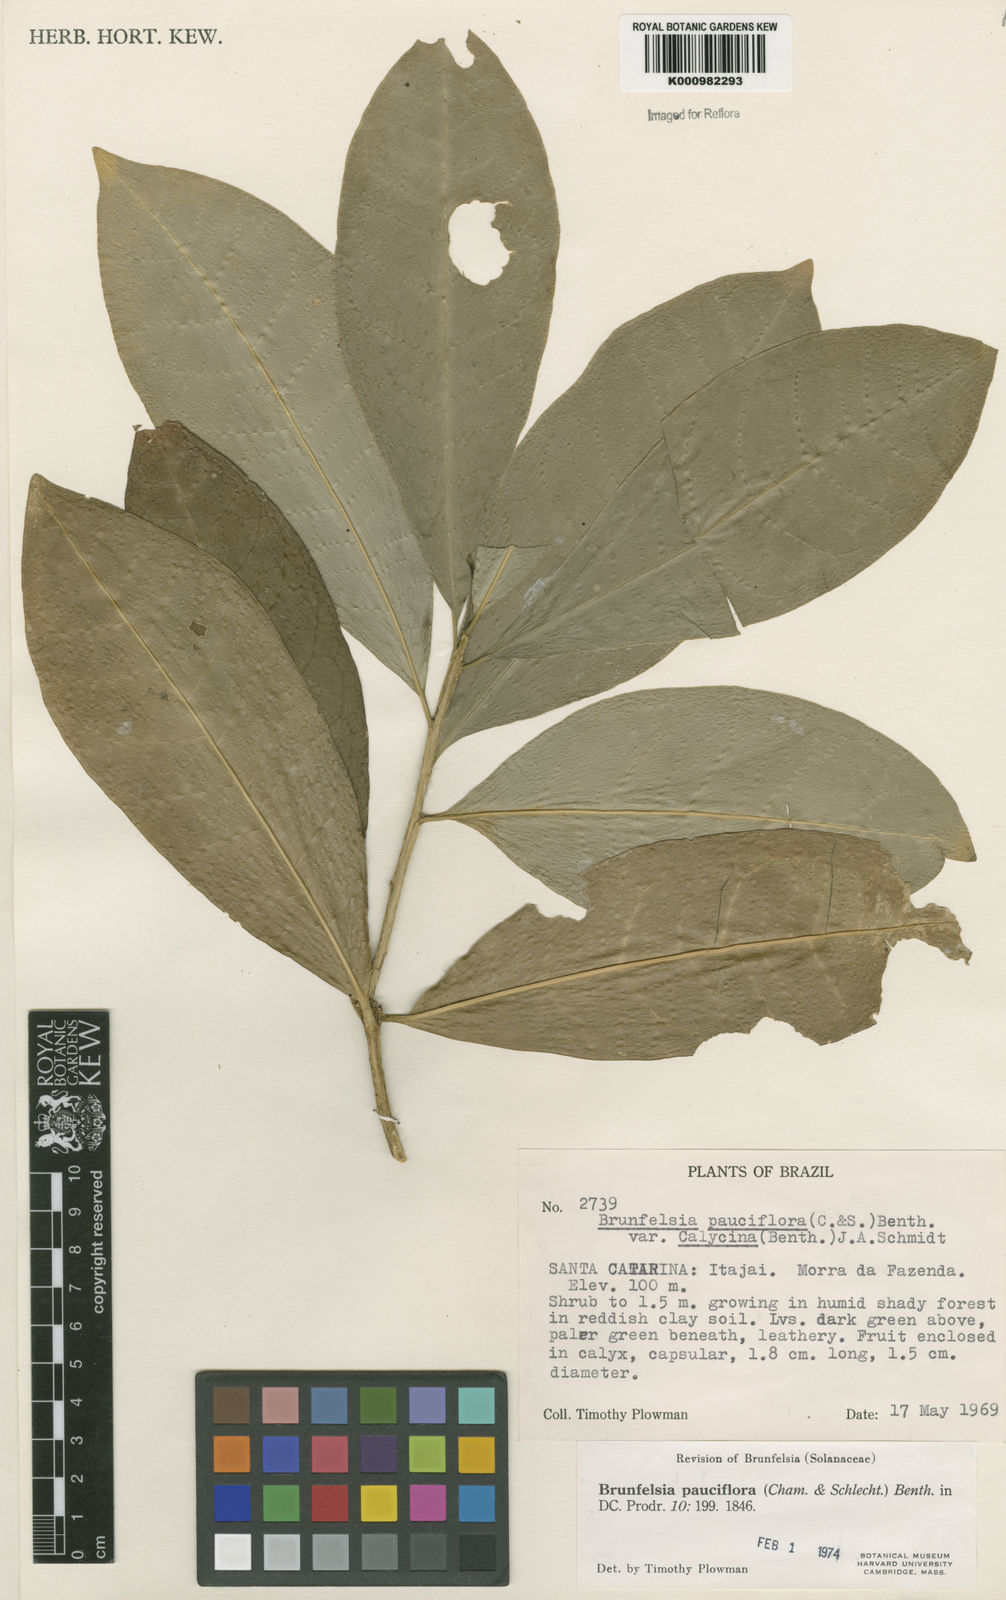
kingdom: Plantae
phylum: Tracheophyta
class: Magnoliopsida
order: Solanales
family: Solanaceae
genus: Brunfelsia
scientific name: Brunfelsia pauciflora
